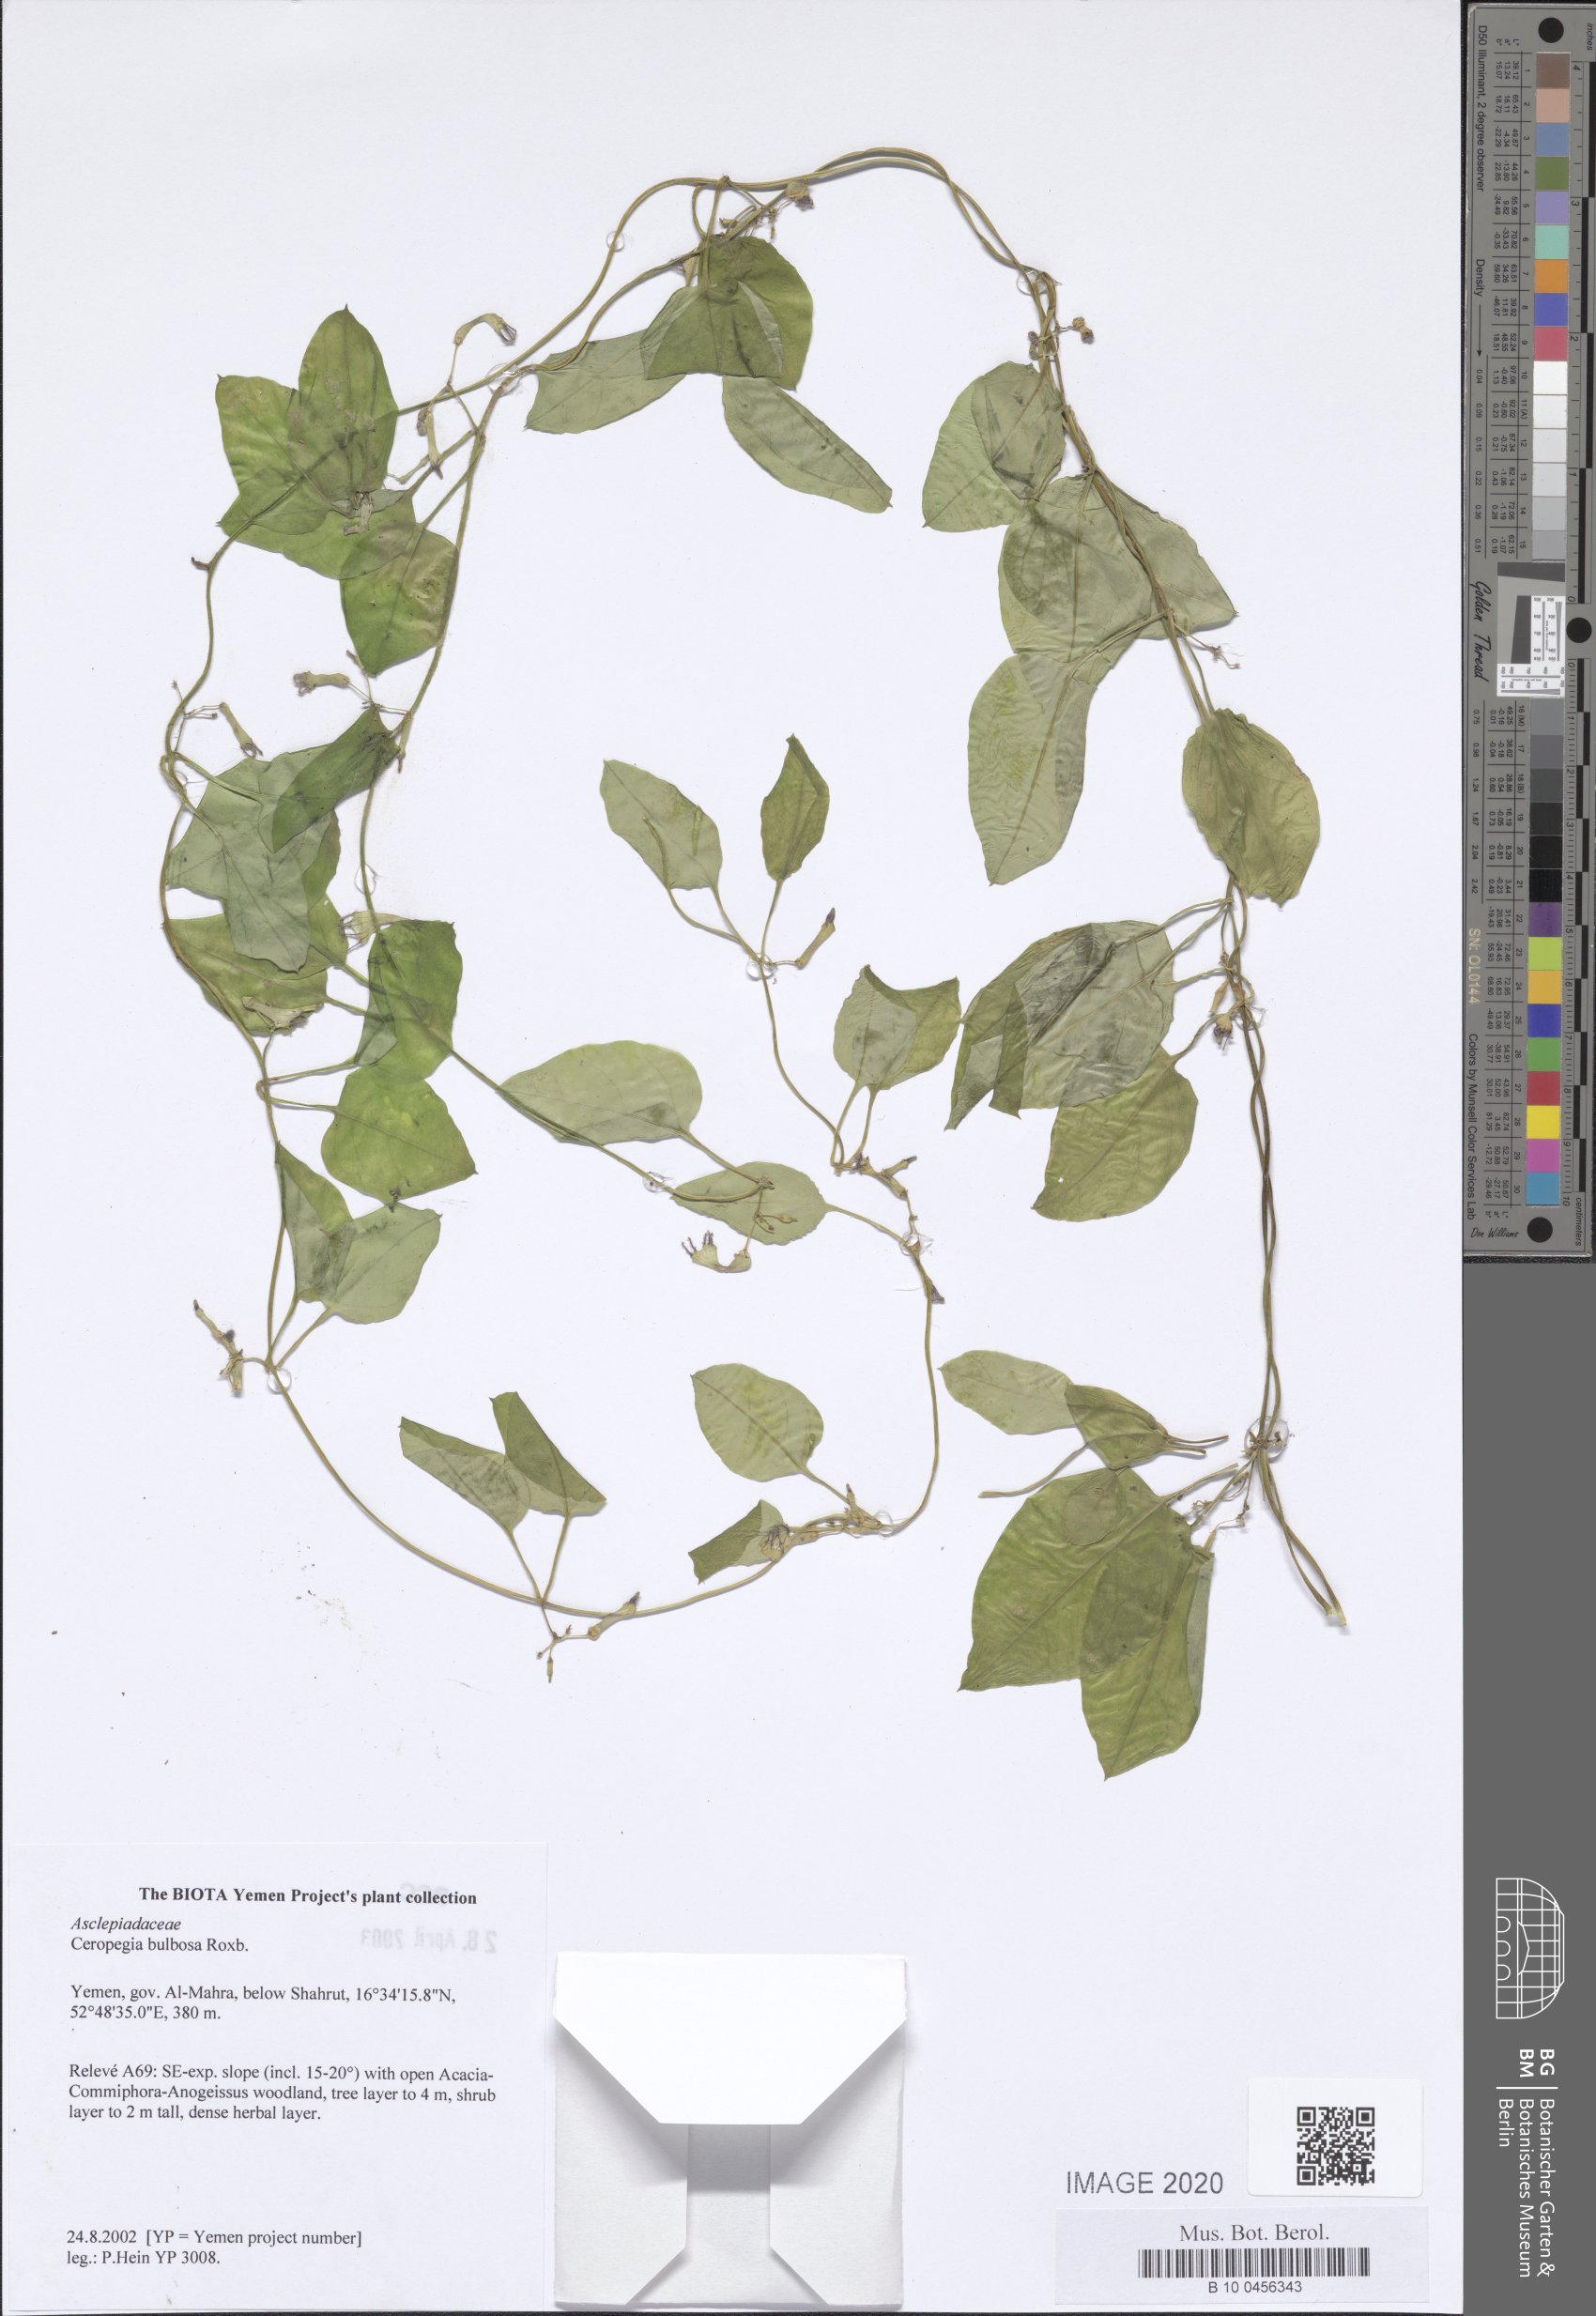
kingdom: Plantae
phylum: Tracheophyta
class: Magnoliopsida
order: Gentianales
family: Apocynaceae
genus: Ceropegia
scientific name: Ceropegia bulbosa
